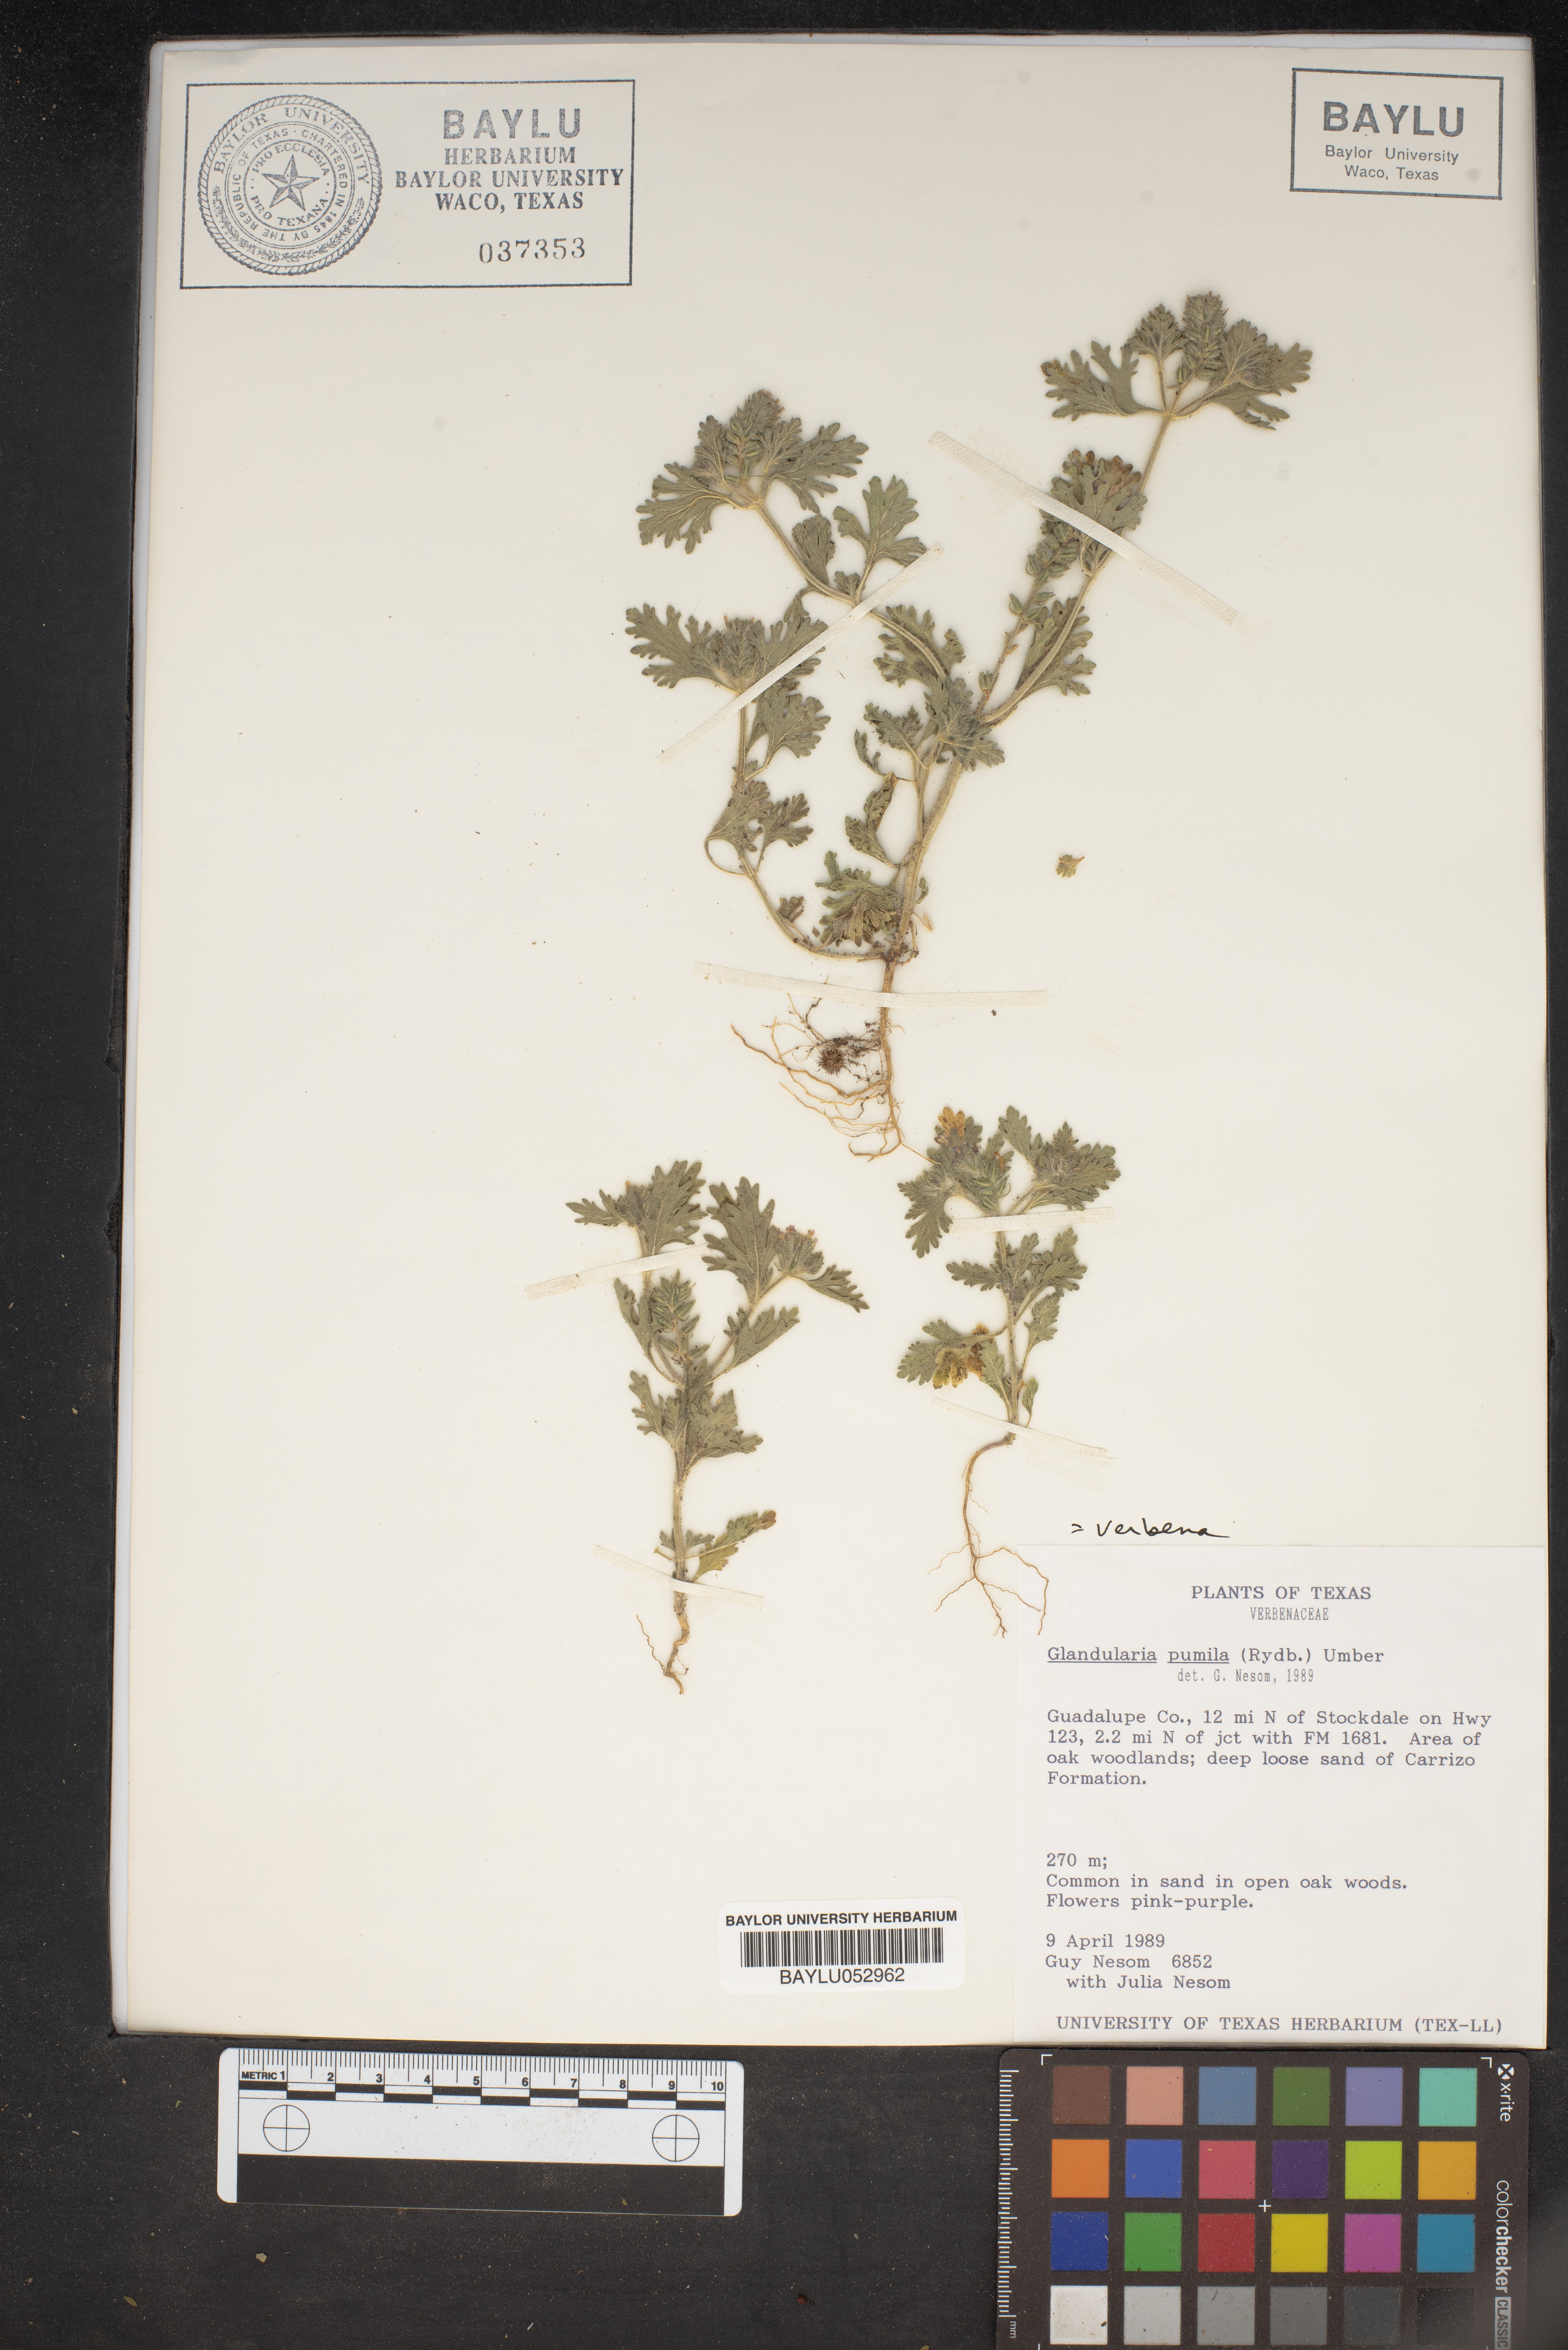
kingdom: Plantae
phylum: Tracheophyta
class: Magnoliopsida
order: Lamiales
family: Verbenaceae
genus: Verbena
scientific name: Verbena pumila
